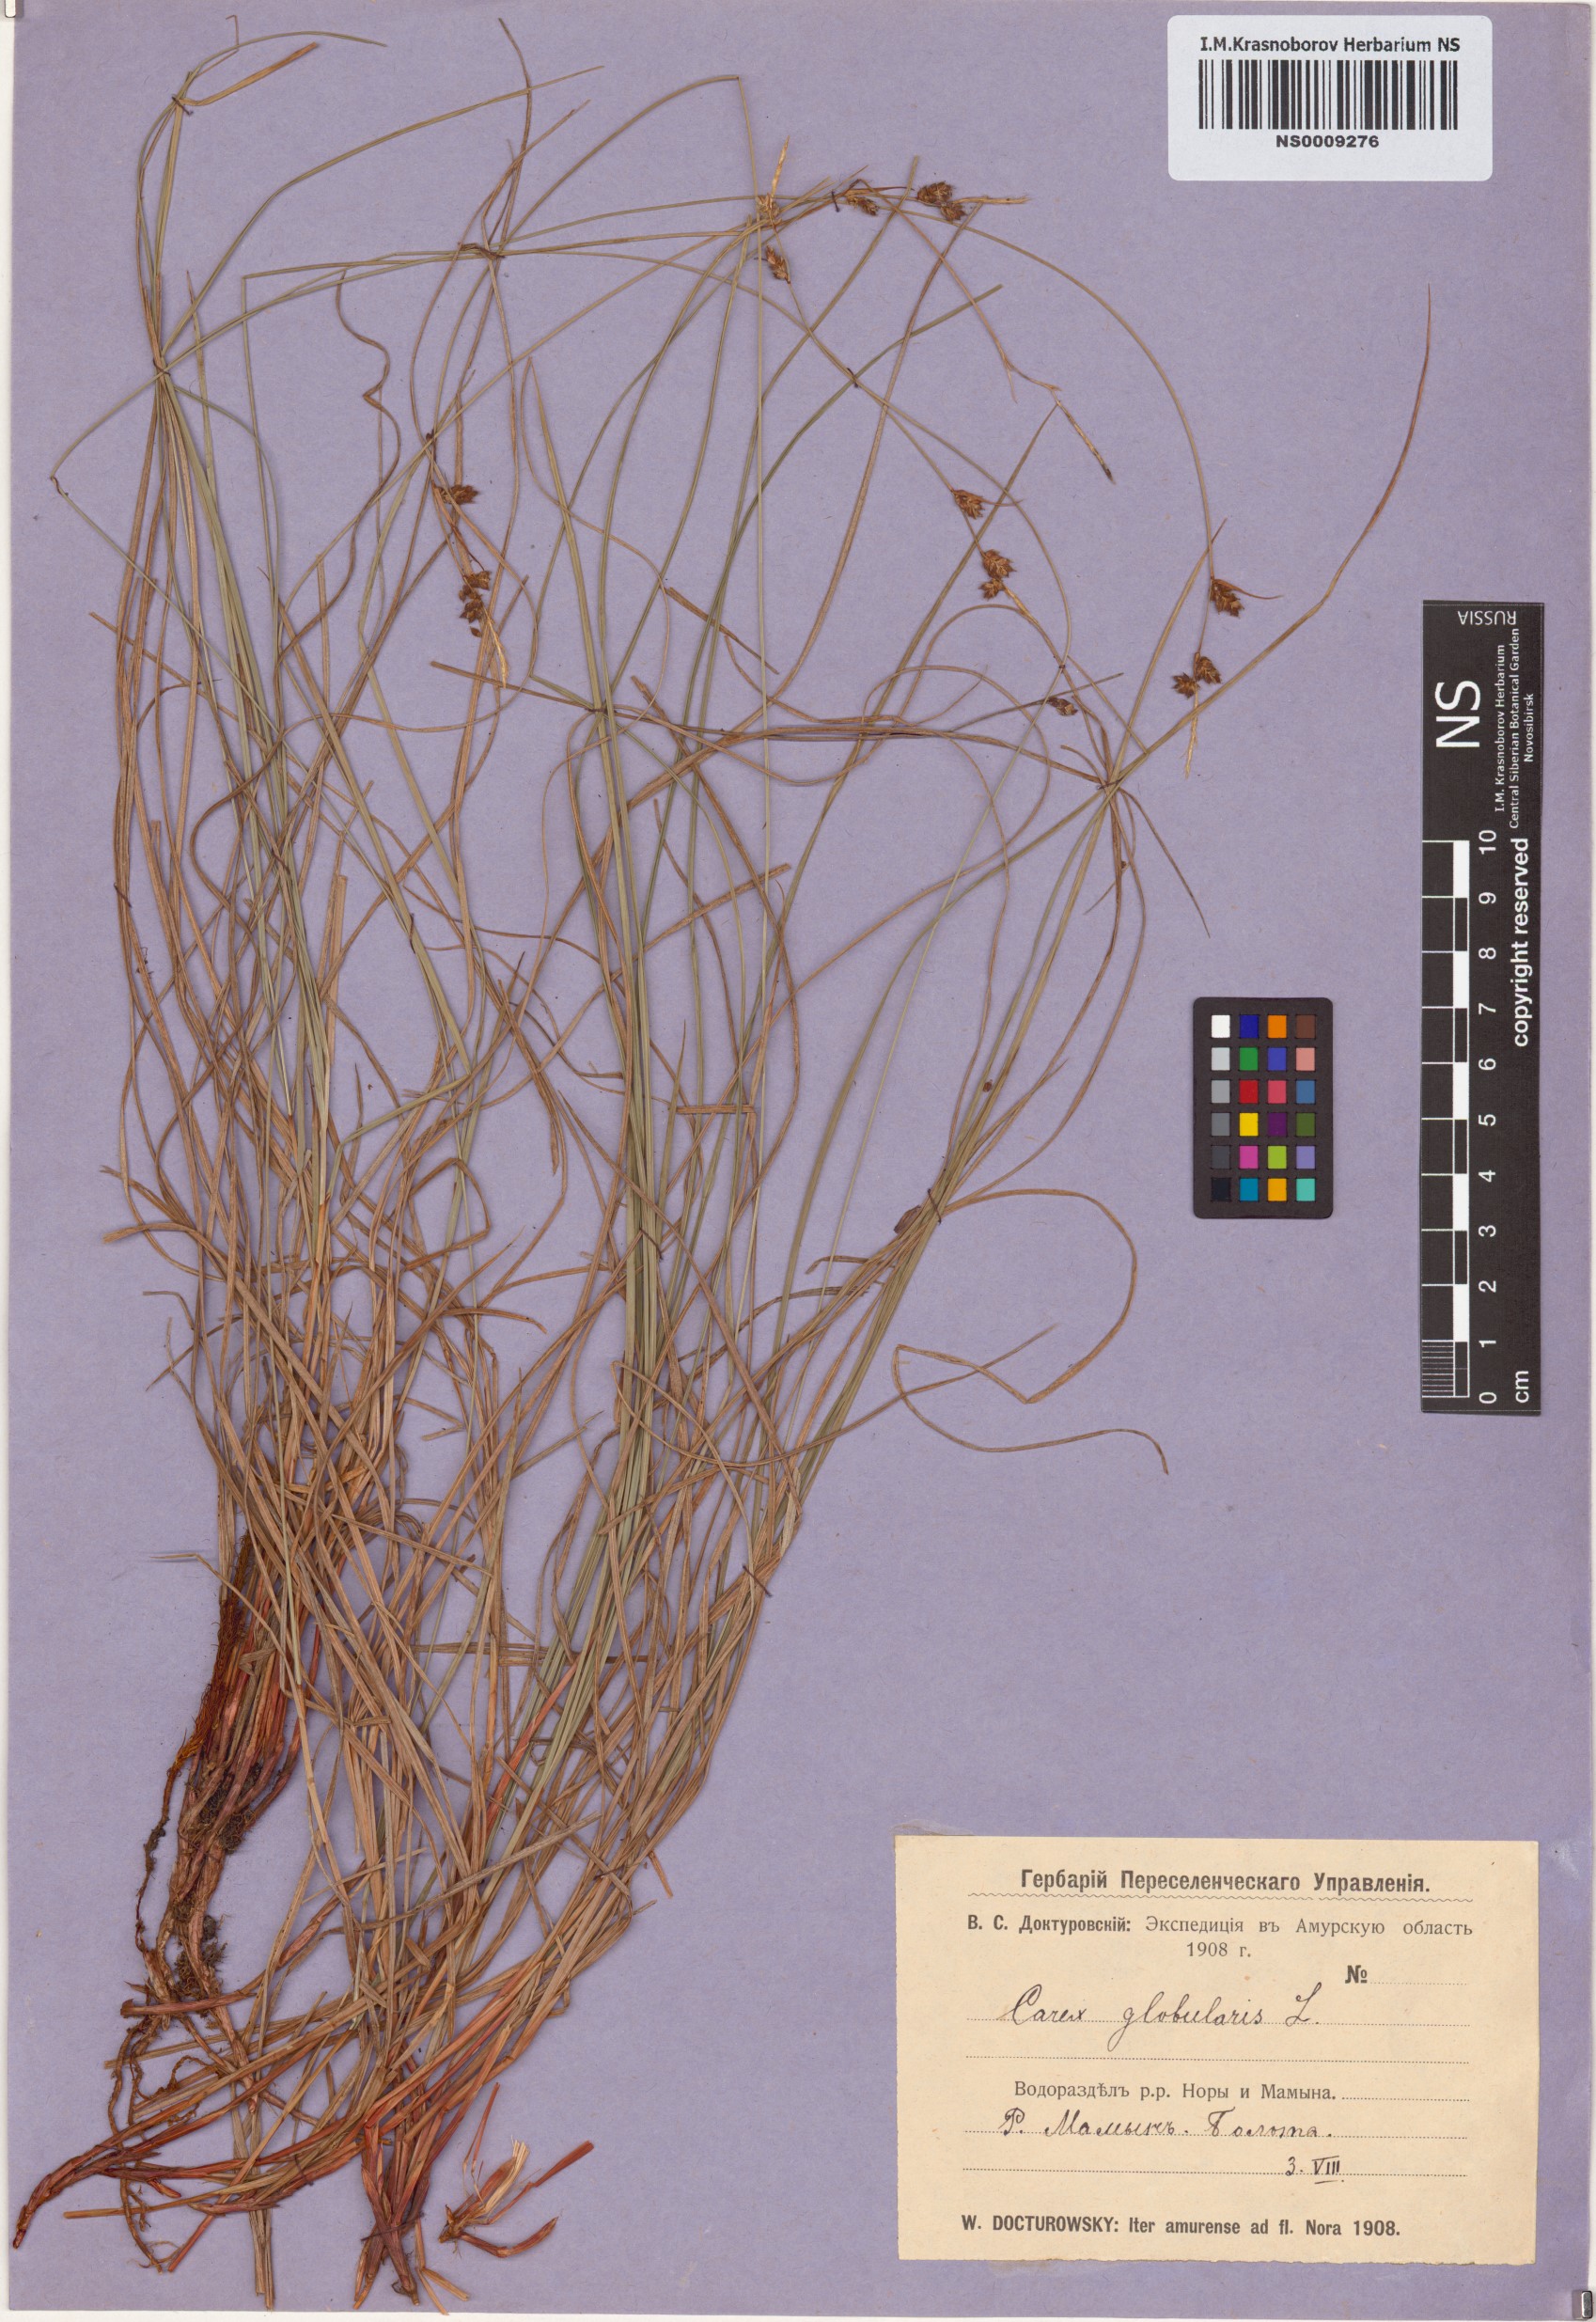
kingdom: Plantae
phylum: Tracheophyta
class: Liliopsida
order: Poales
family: Cyperaceae
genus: Carex
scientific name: Carex globularis
